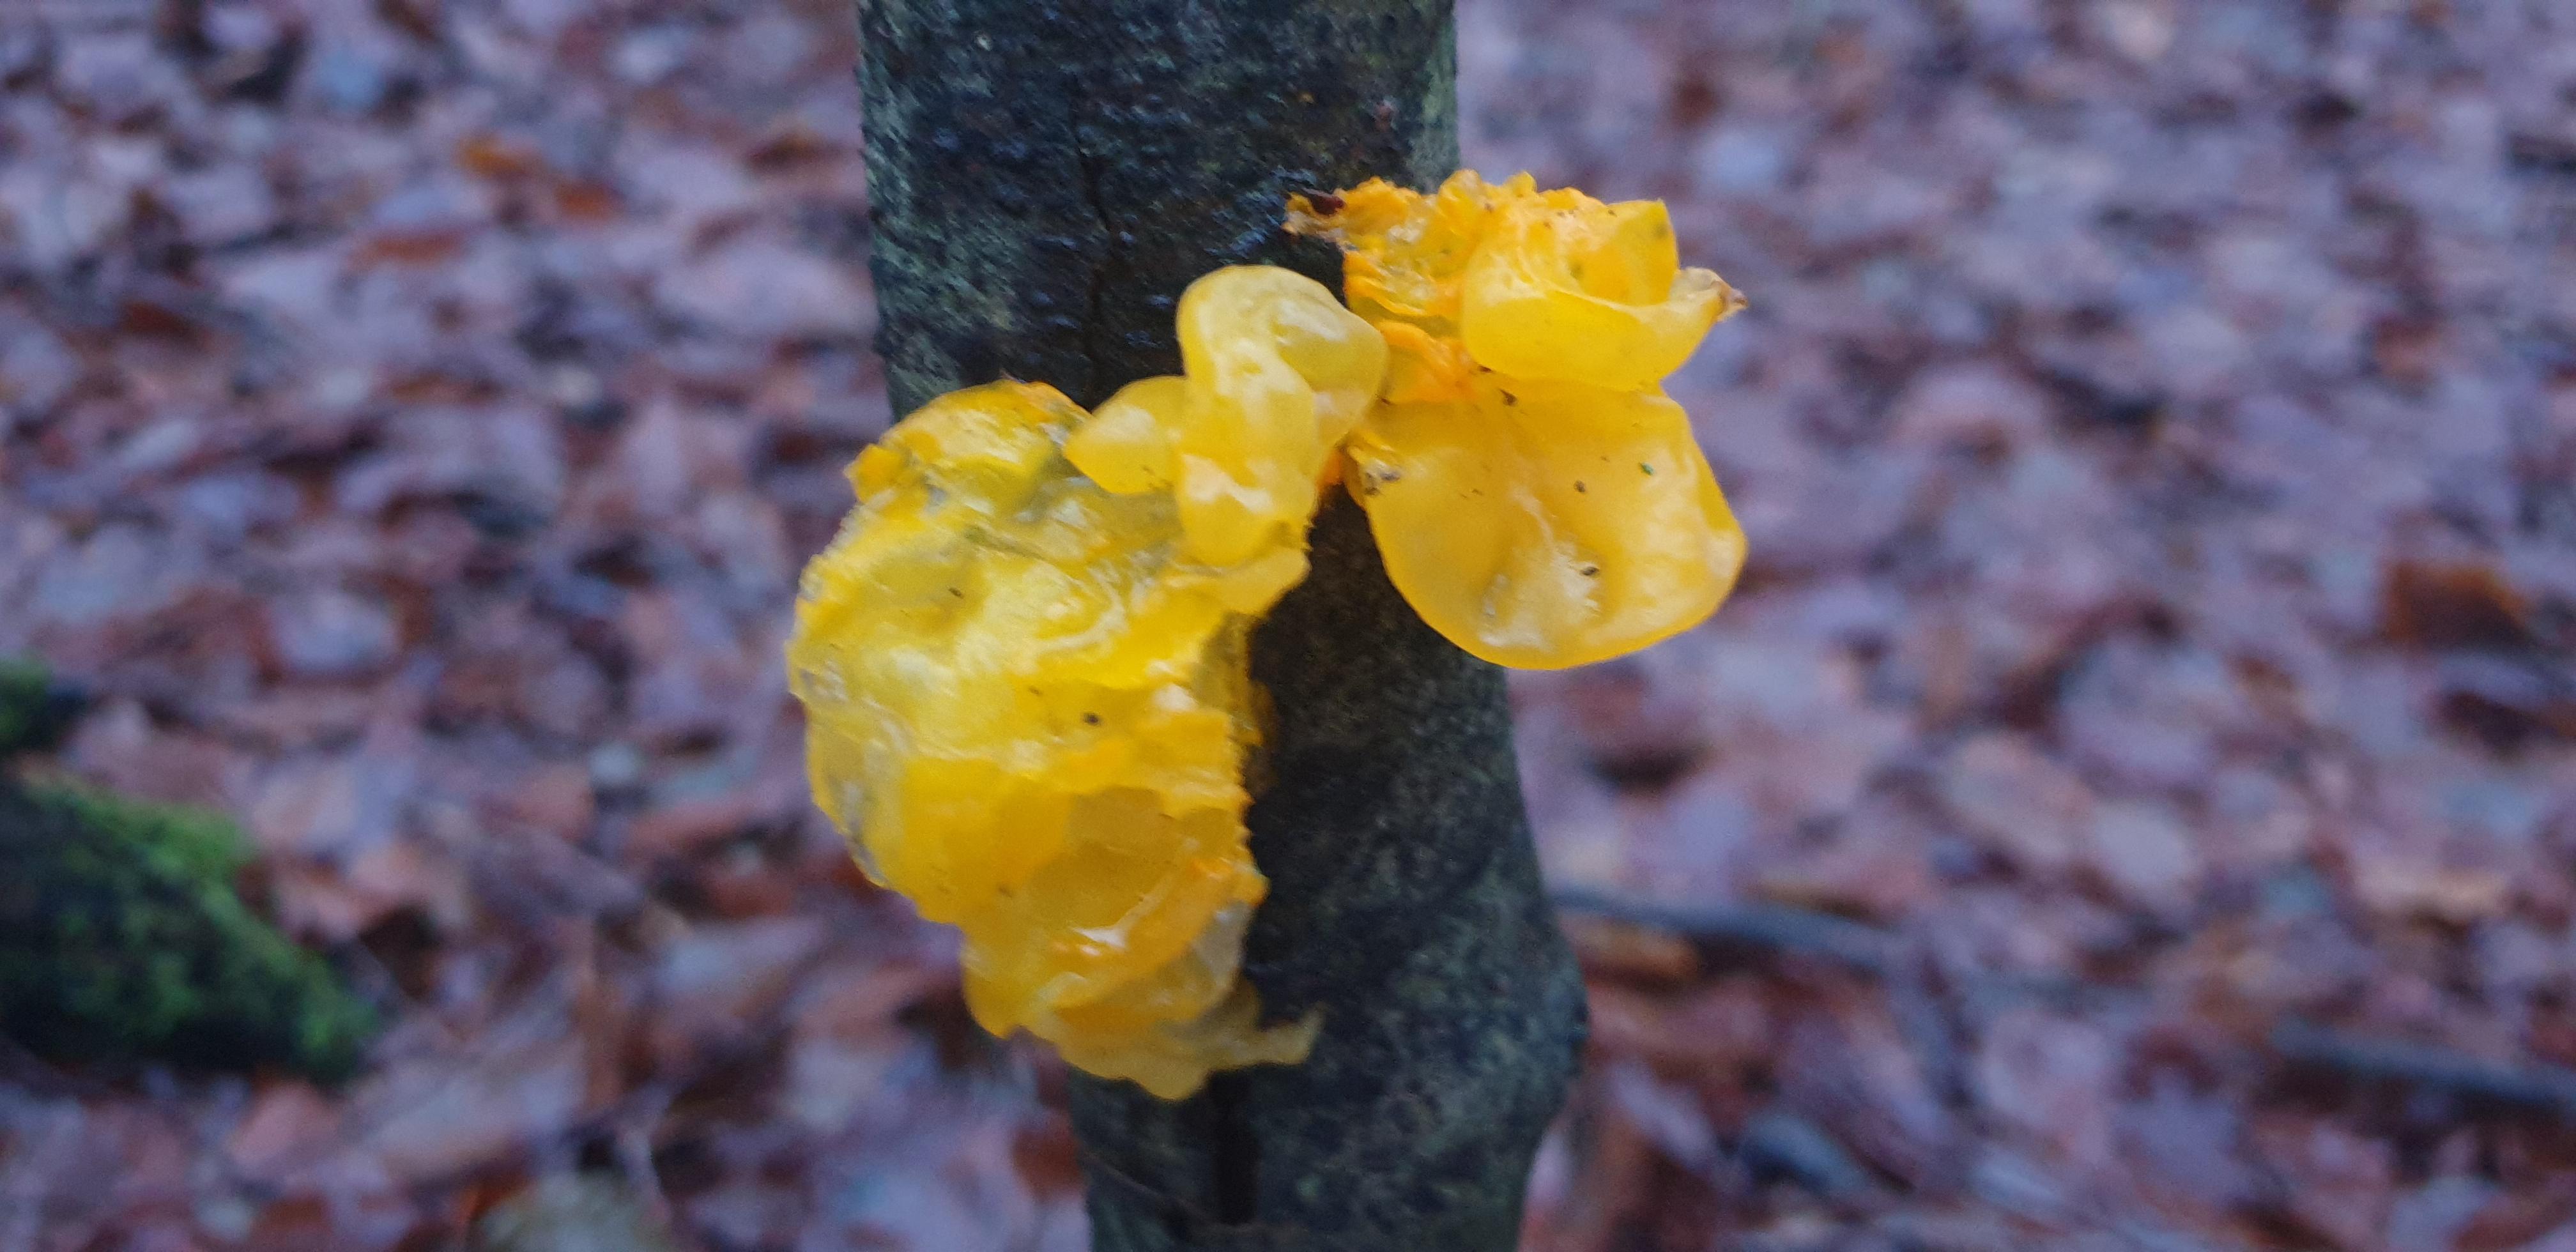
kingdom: Fungi
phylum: Basidiomycota
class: Tremellomycetes
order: Tremellales
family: Tremellaceae
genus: Tremella
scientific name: Tremella mesenterica
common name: gul bævresvamp
